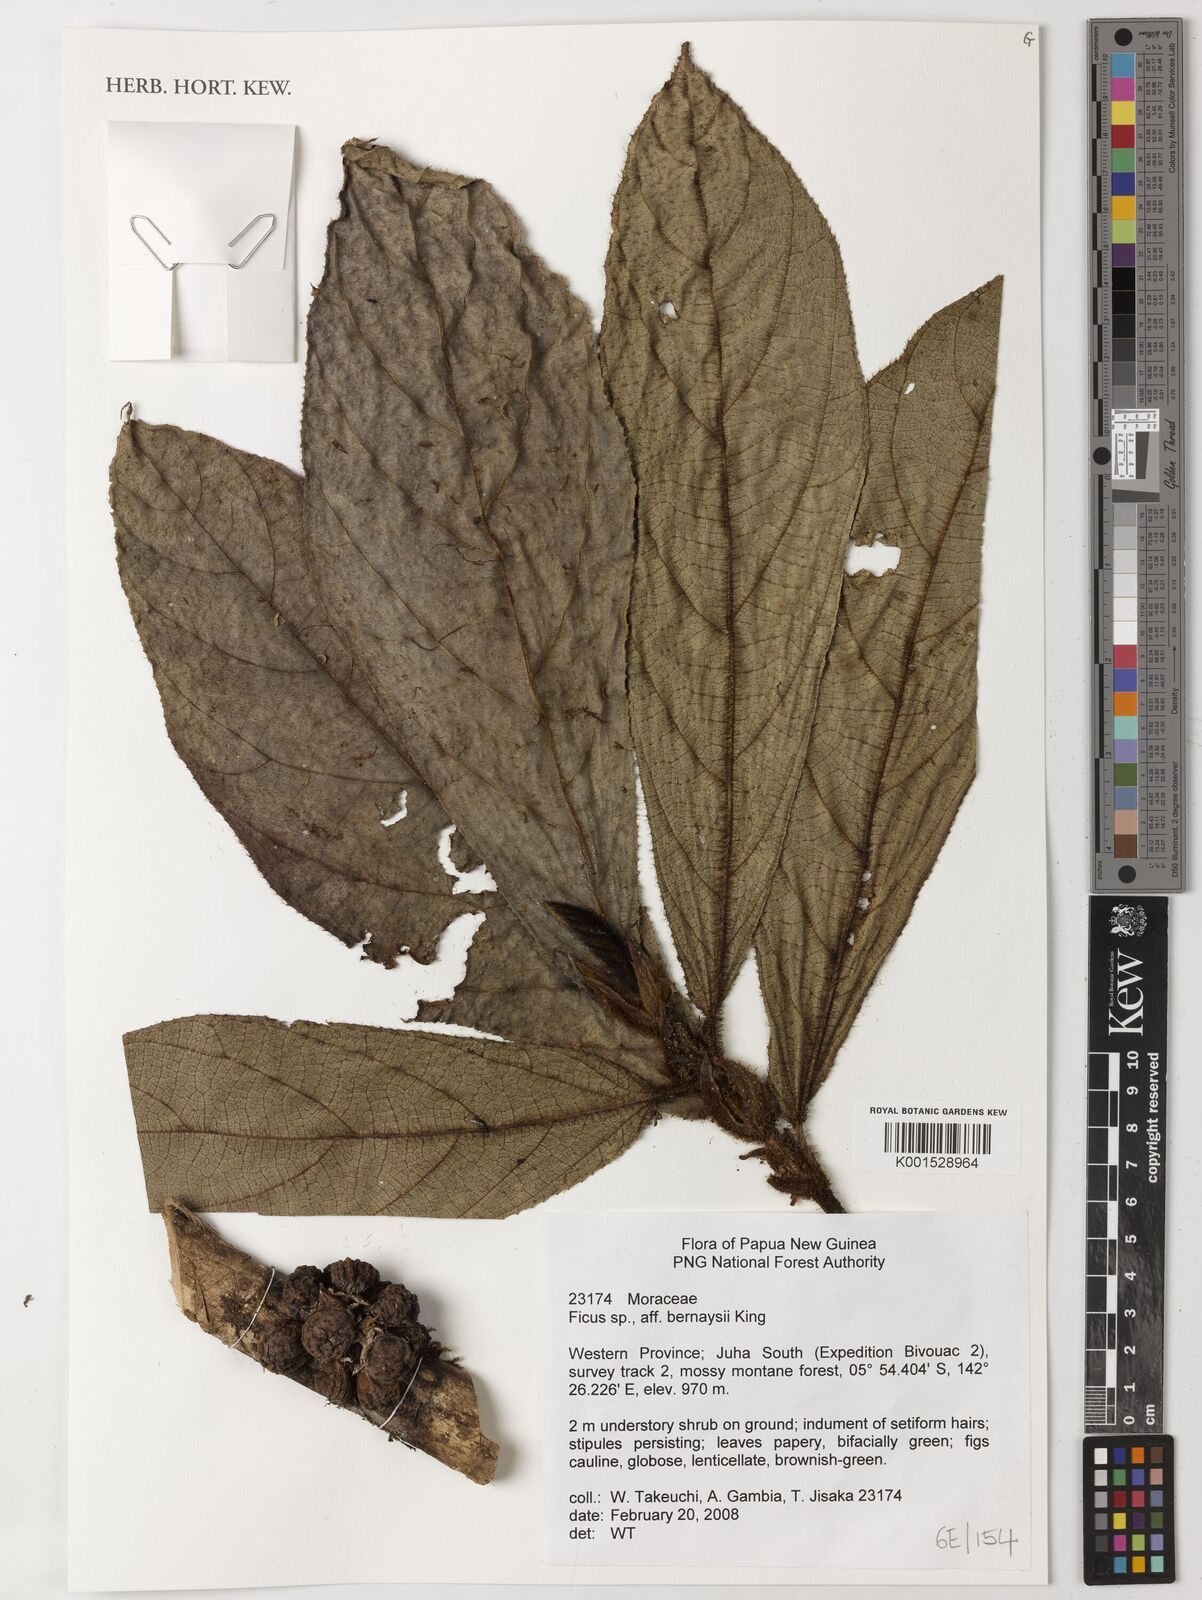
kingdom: Plantae
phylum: Tracheophyta
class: Magnoliopsida
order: Rosales
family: Moraceae
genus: Ficus
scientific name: Ficus bernaysii
